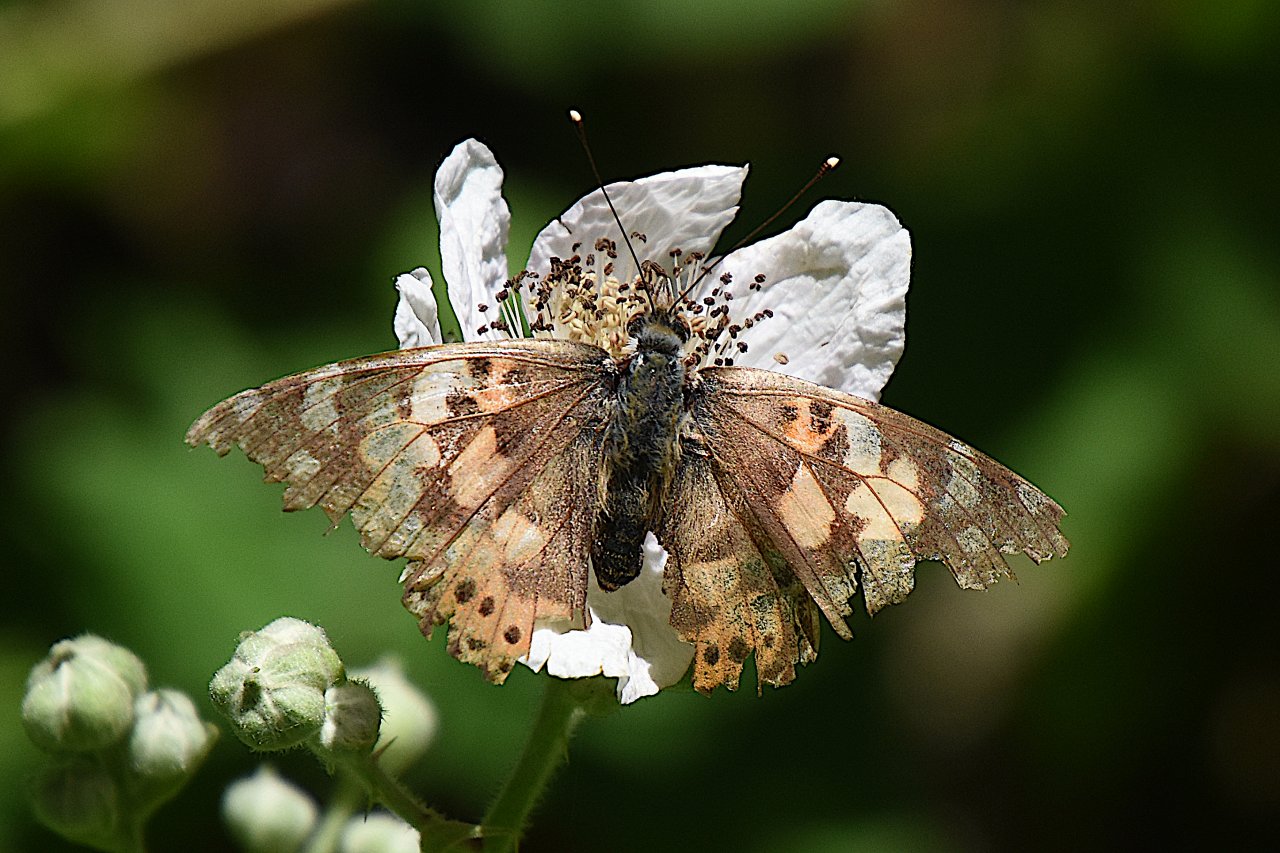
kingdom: Animalia
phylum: Arthropoda
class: Insecta
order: Lepidoptera
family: Nymphalidae
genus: Vanessa
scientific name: Vanessa cardui
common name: Painted Lady
